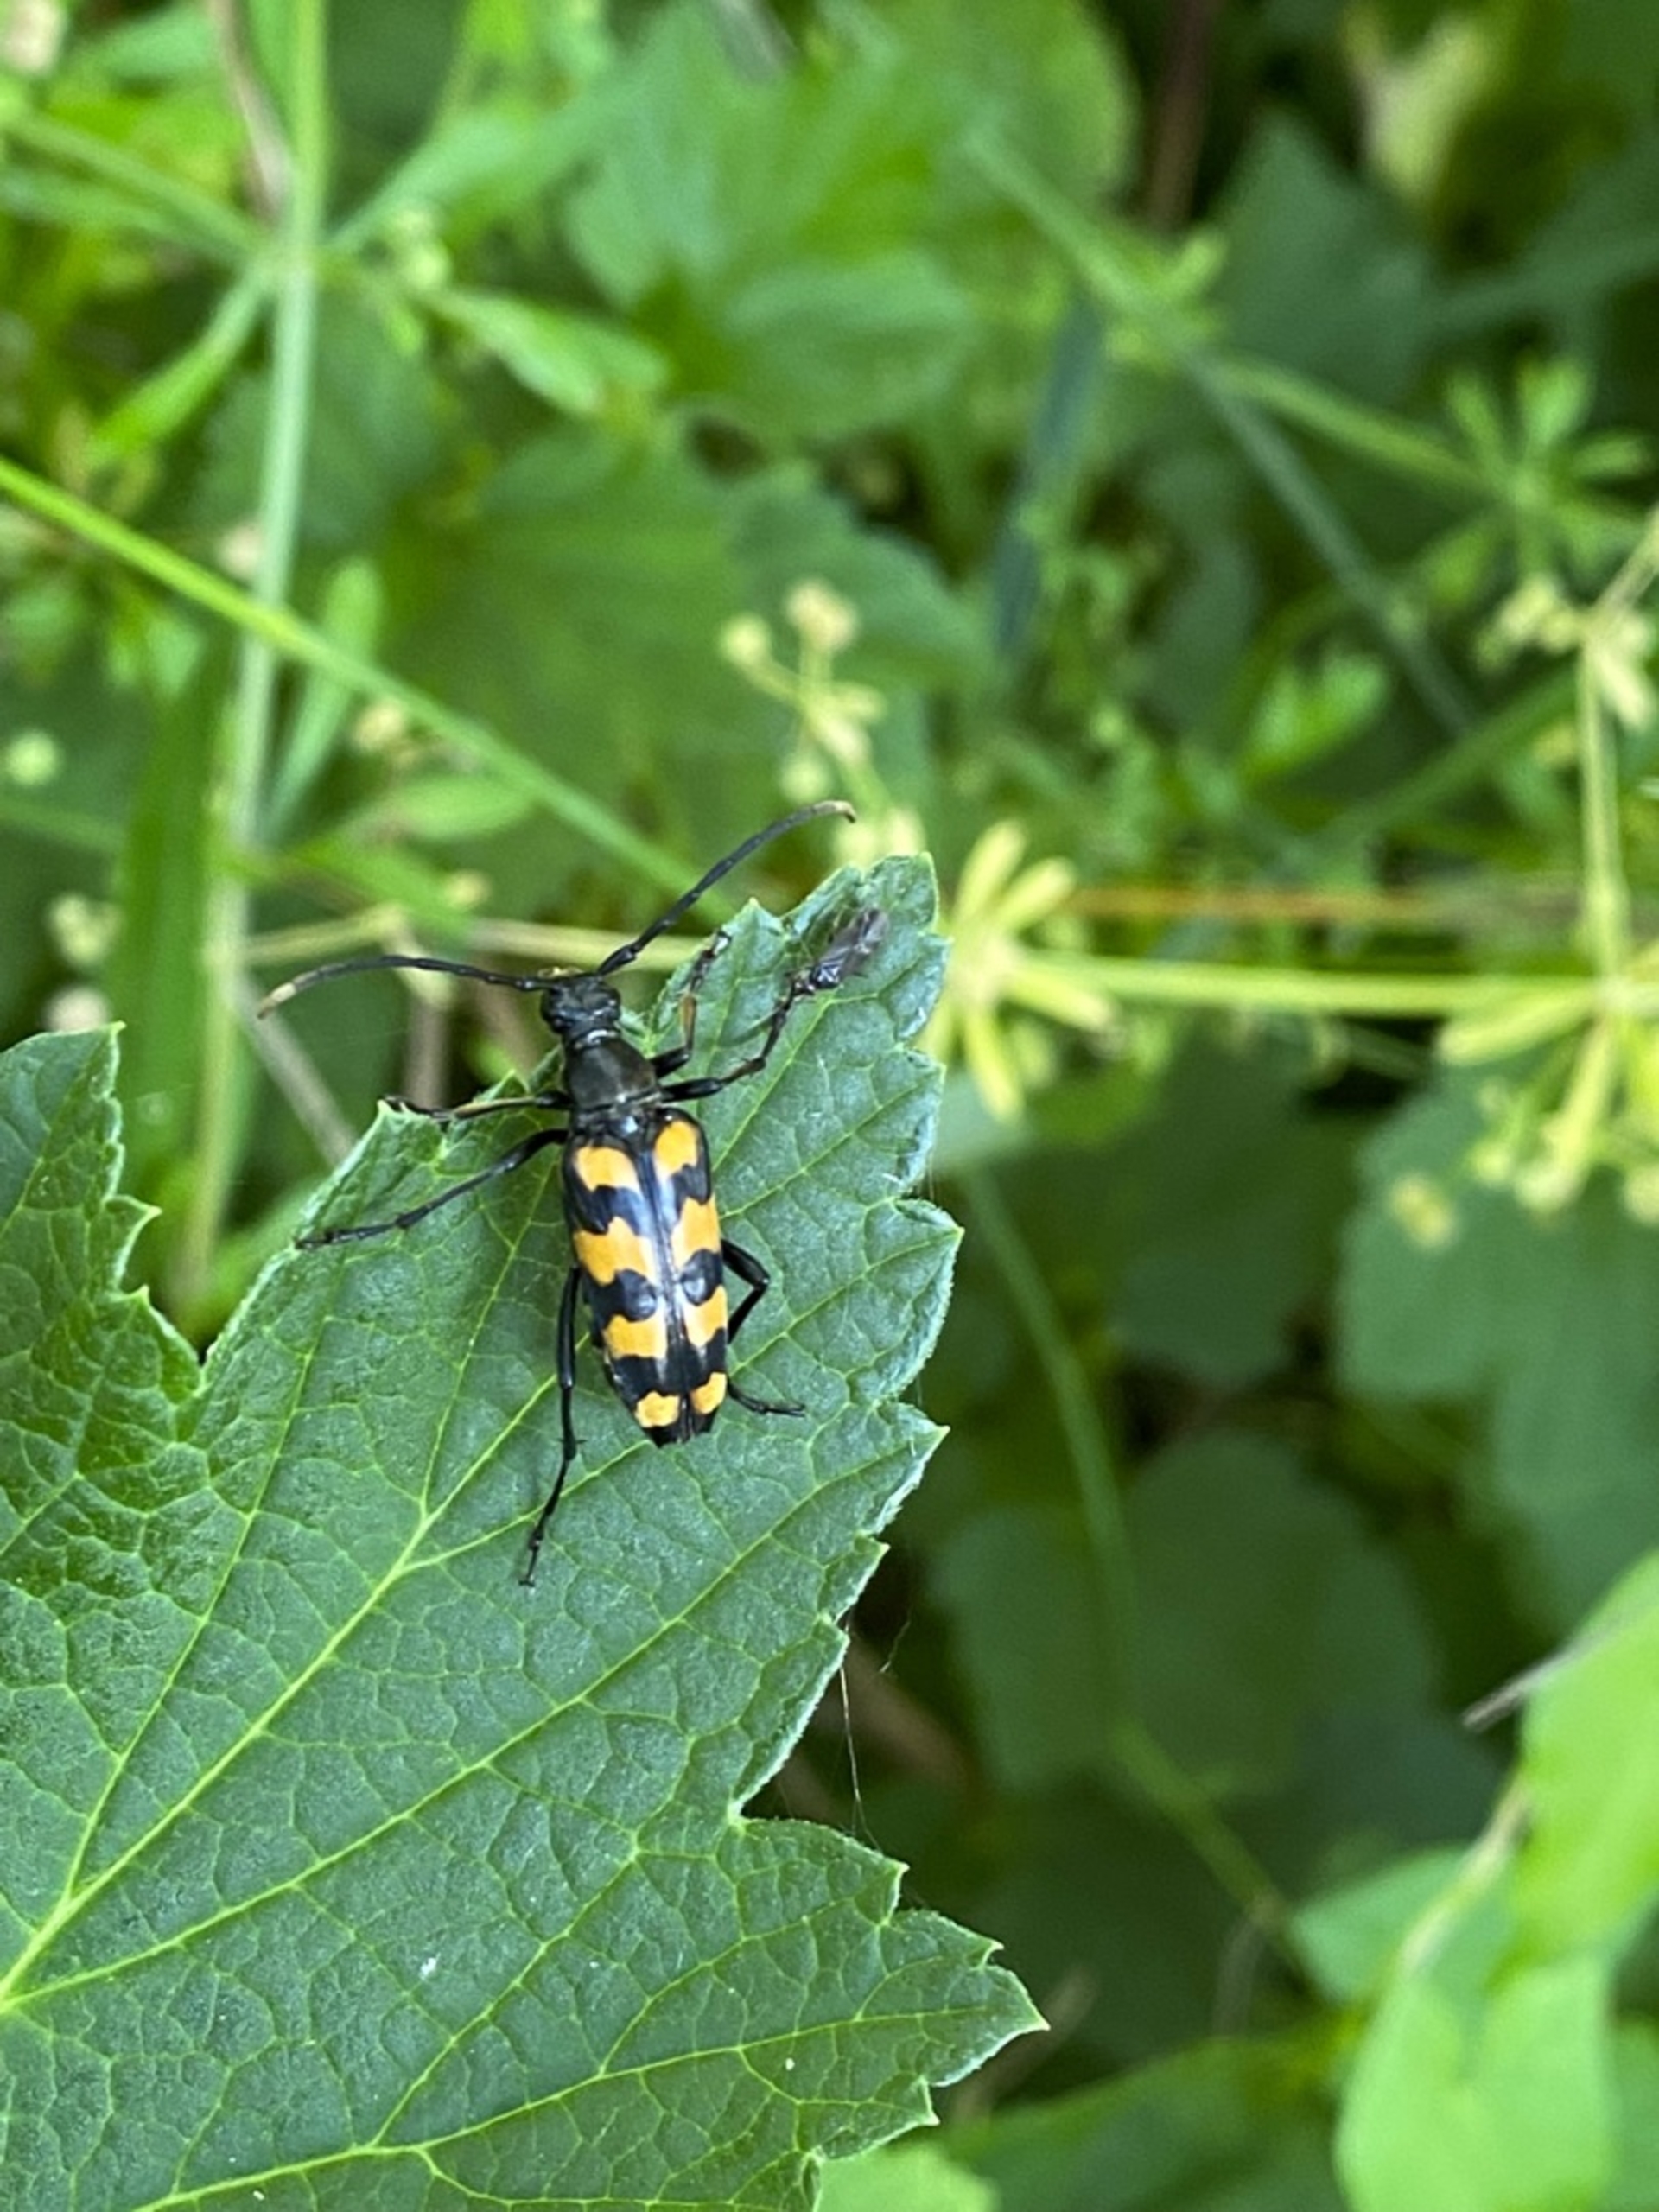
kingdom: Animalia
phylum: Arthropoda
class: Insecta
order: Coleoptera
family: Cerambycidae
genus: Leptura
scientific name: Leptura quadrifasciata
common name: Firebåndet blomsterbuk
